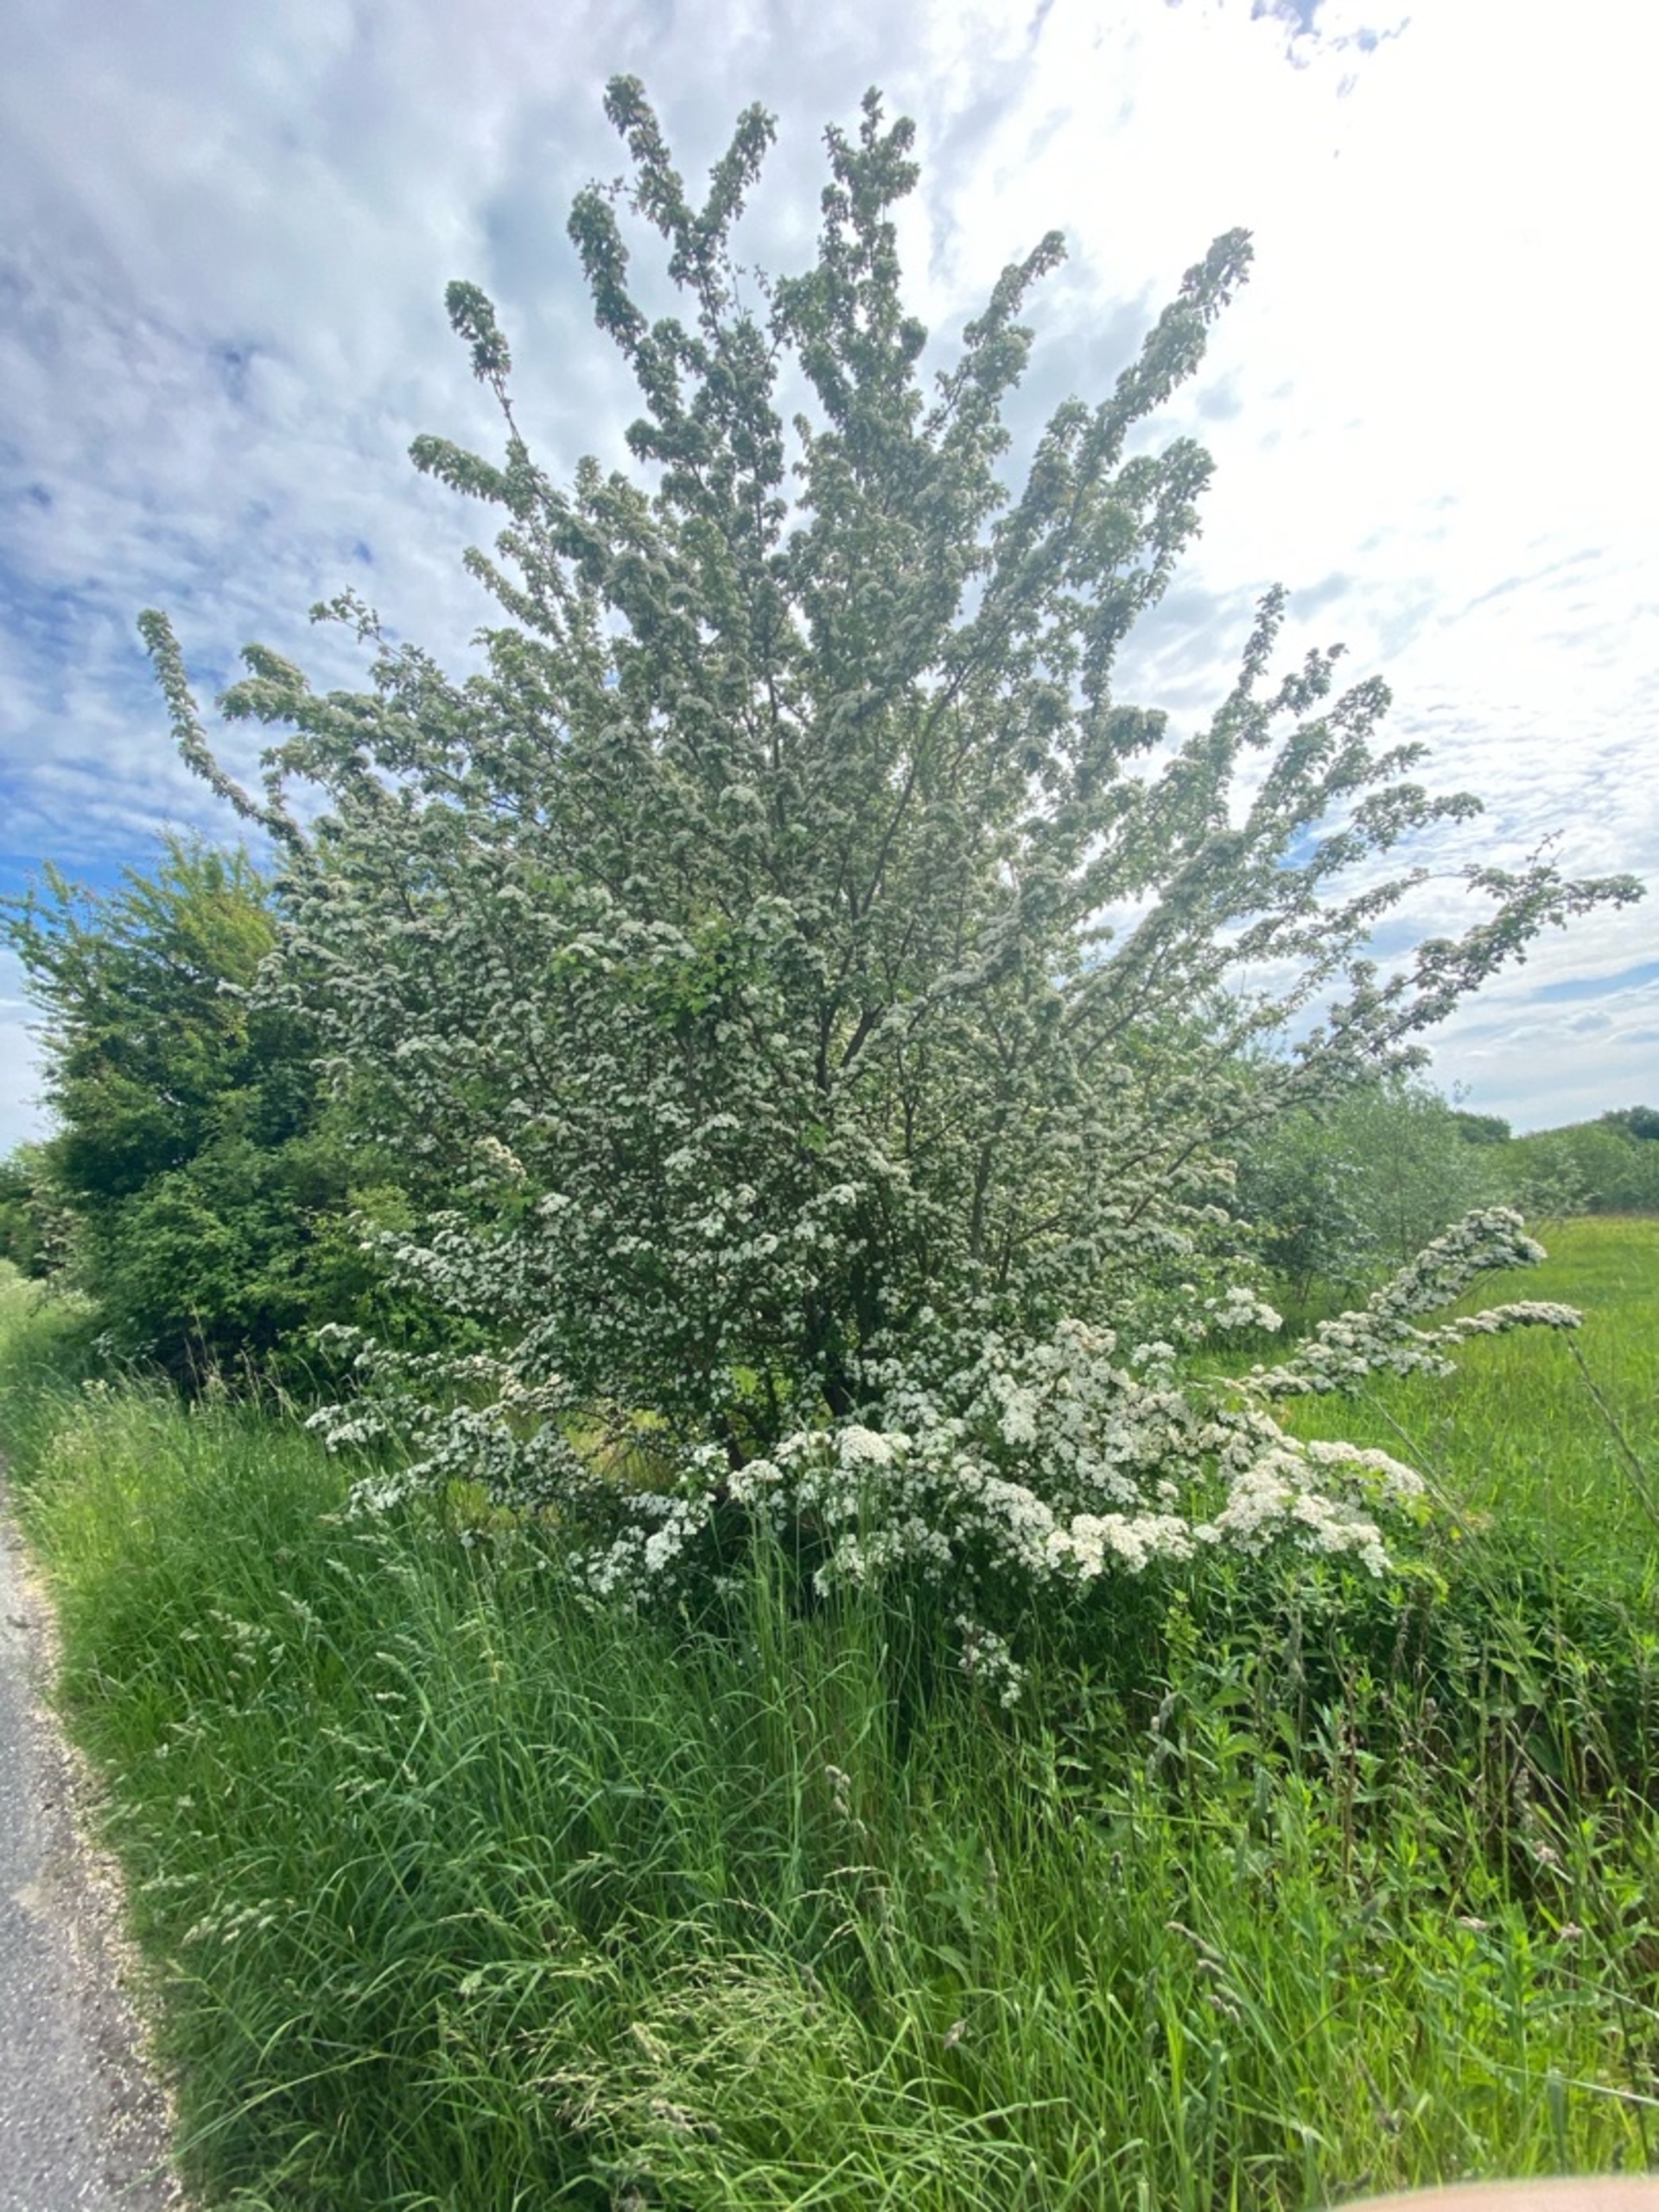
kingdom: Plantae
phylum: Tracheophyta
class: Magnoliopsida
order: Rosales
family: Rosaceae
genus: Crataegus
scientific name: Crataegus monogyna
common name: Engriflet hvidtjørn
